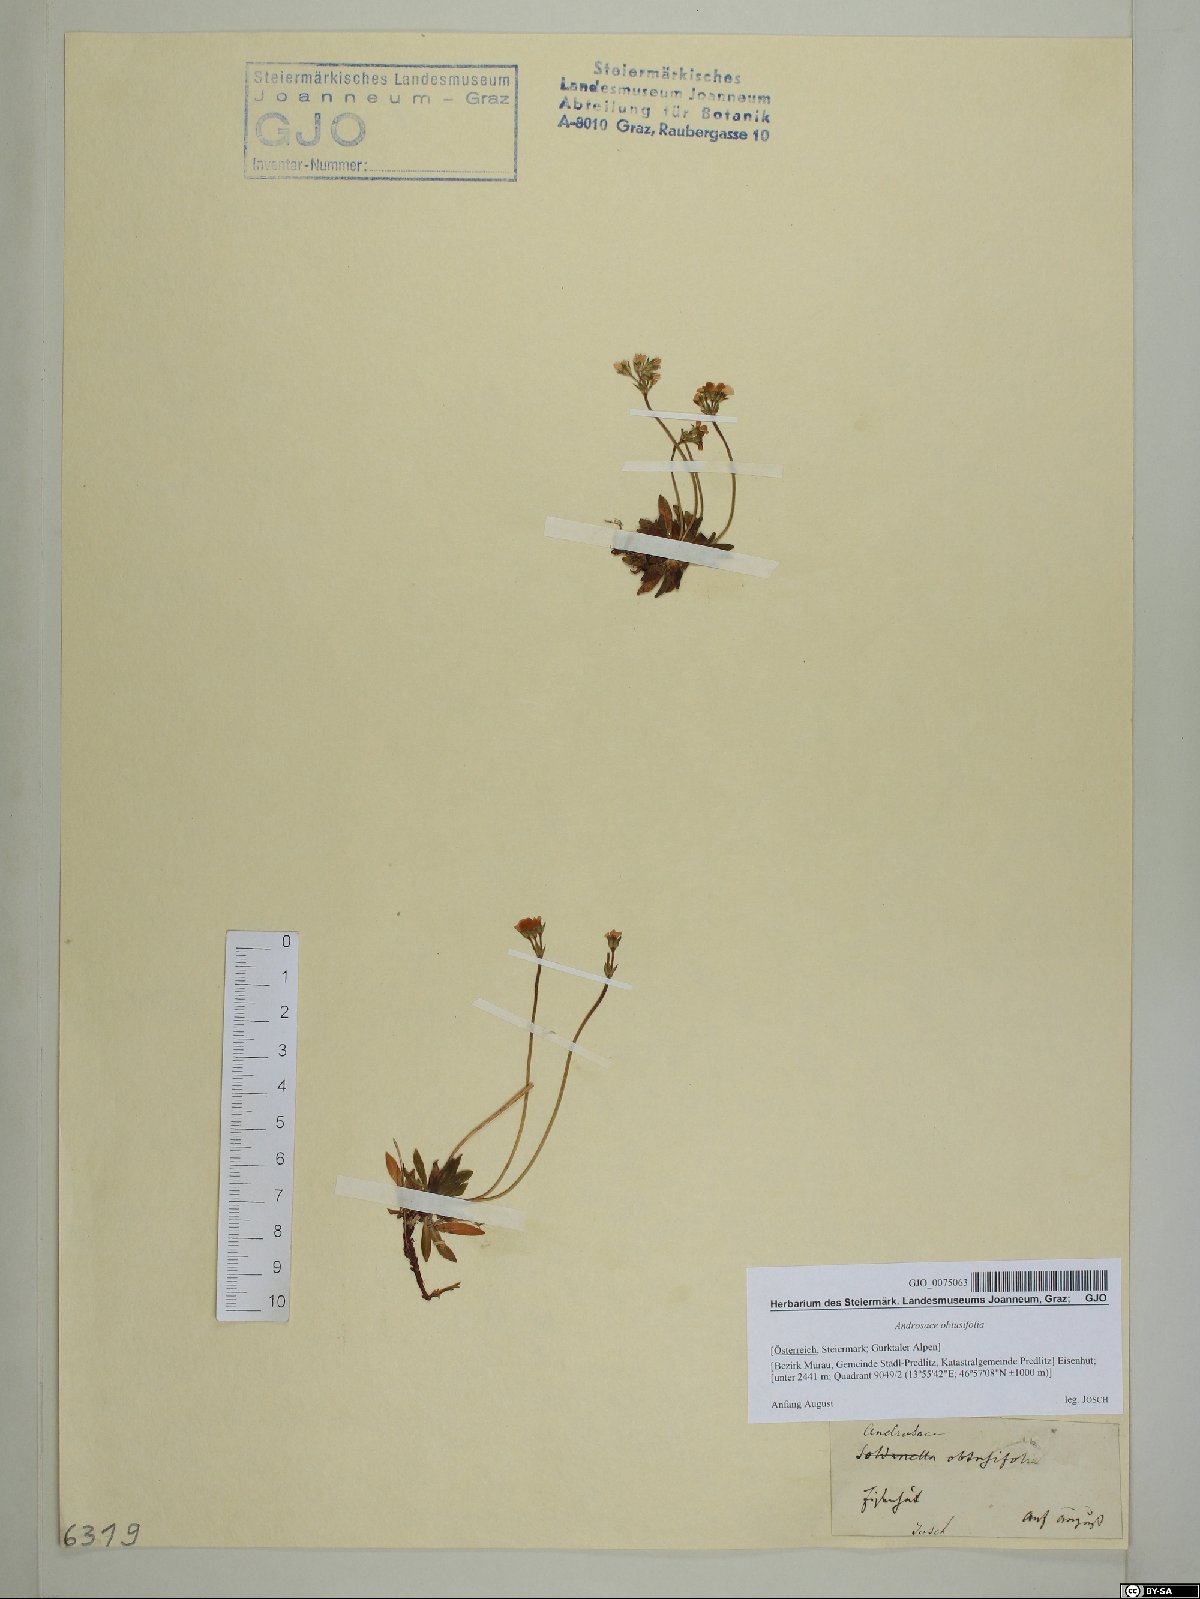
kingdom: Plantae
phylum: Tracheophyta
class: Magnoliopsida
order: Ericales
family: Primulaceae
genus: Androsace
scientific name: Androsace obtusifolia
